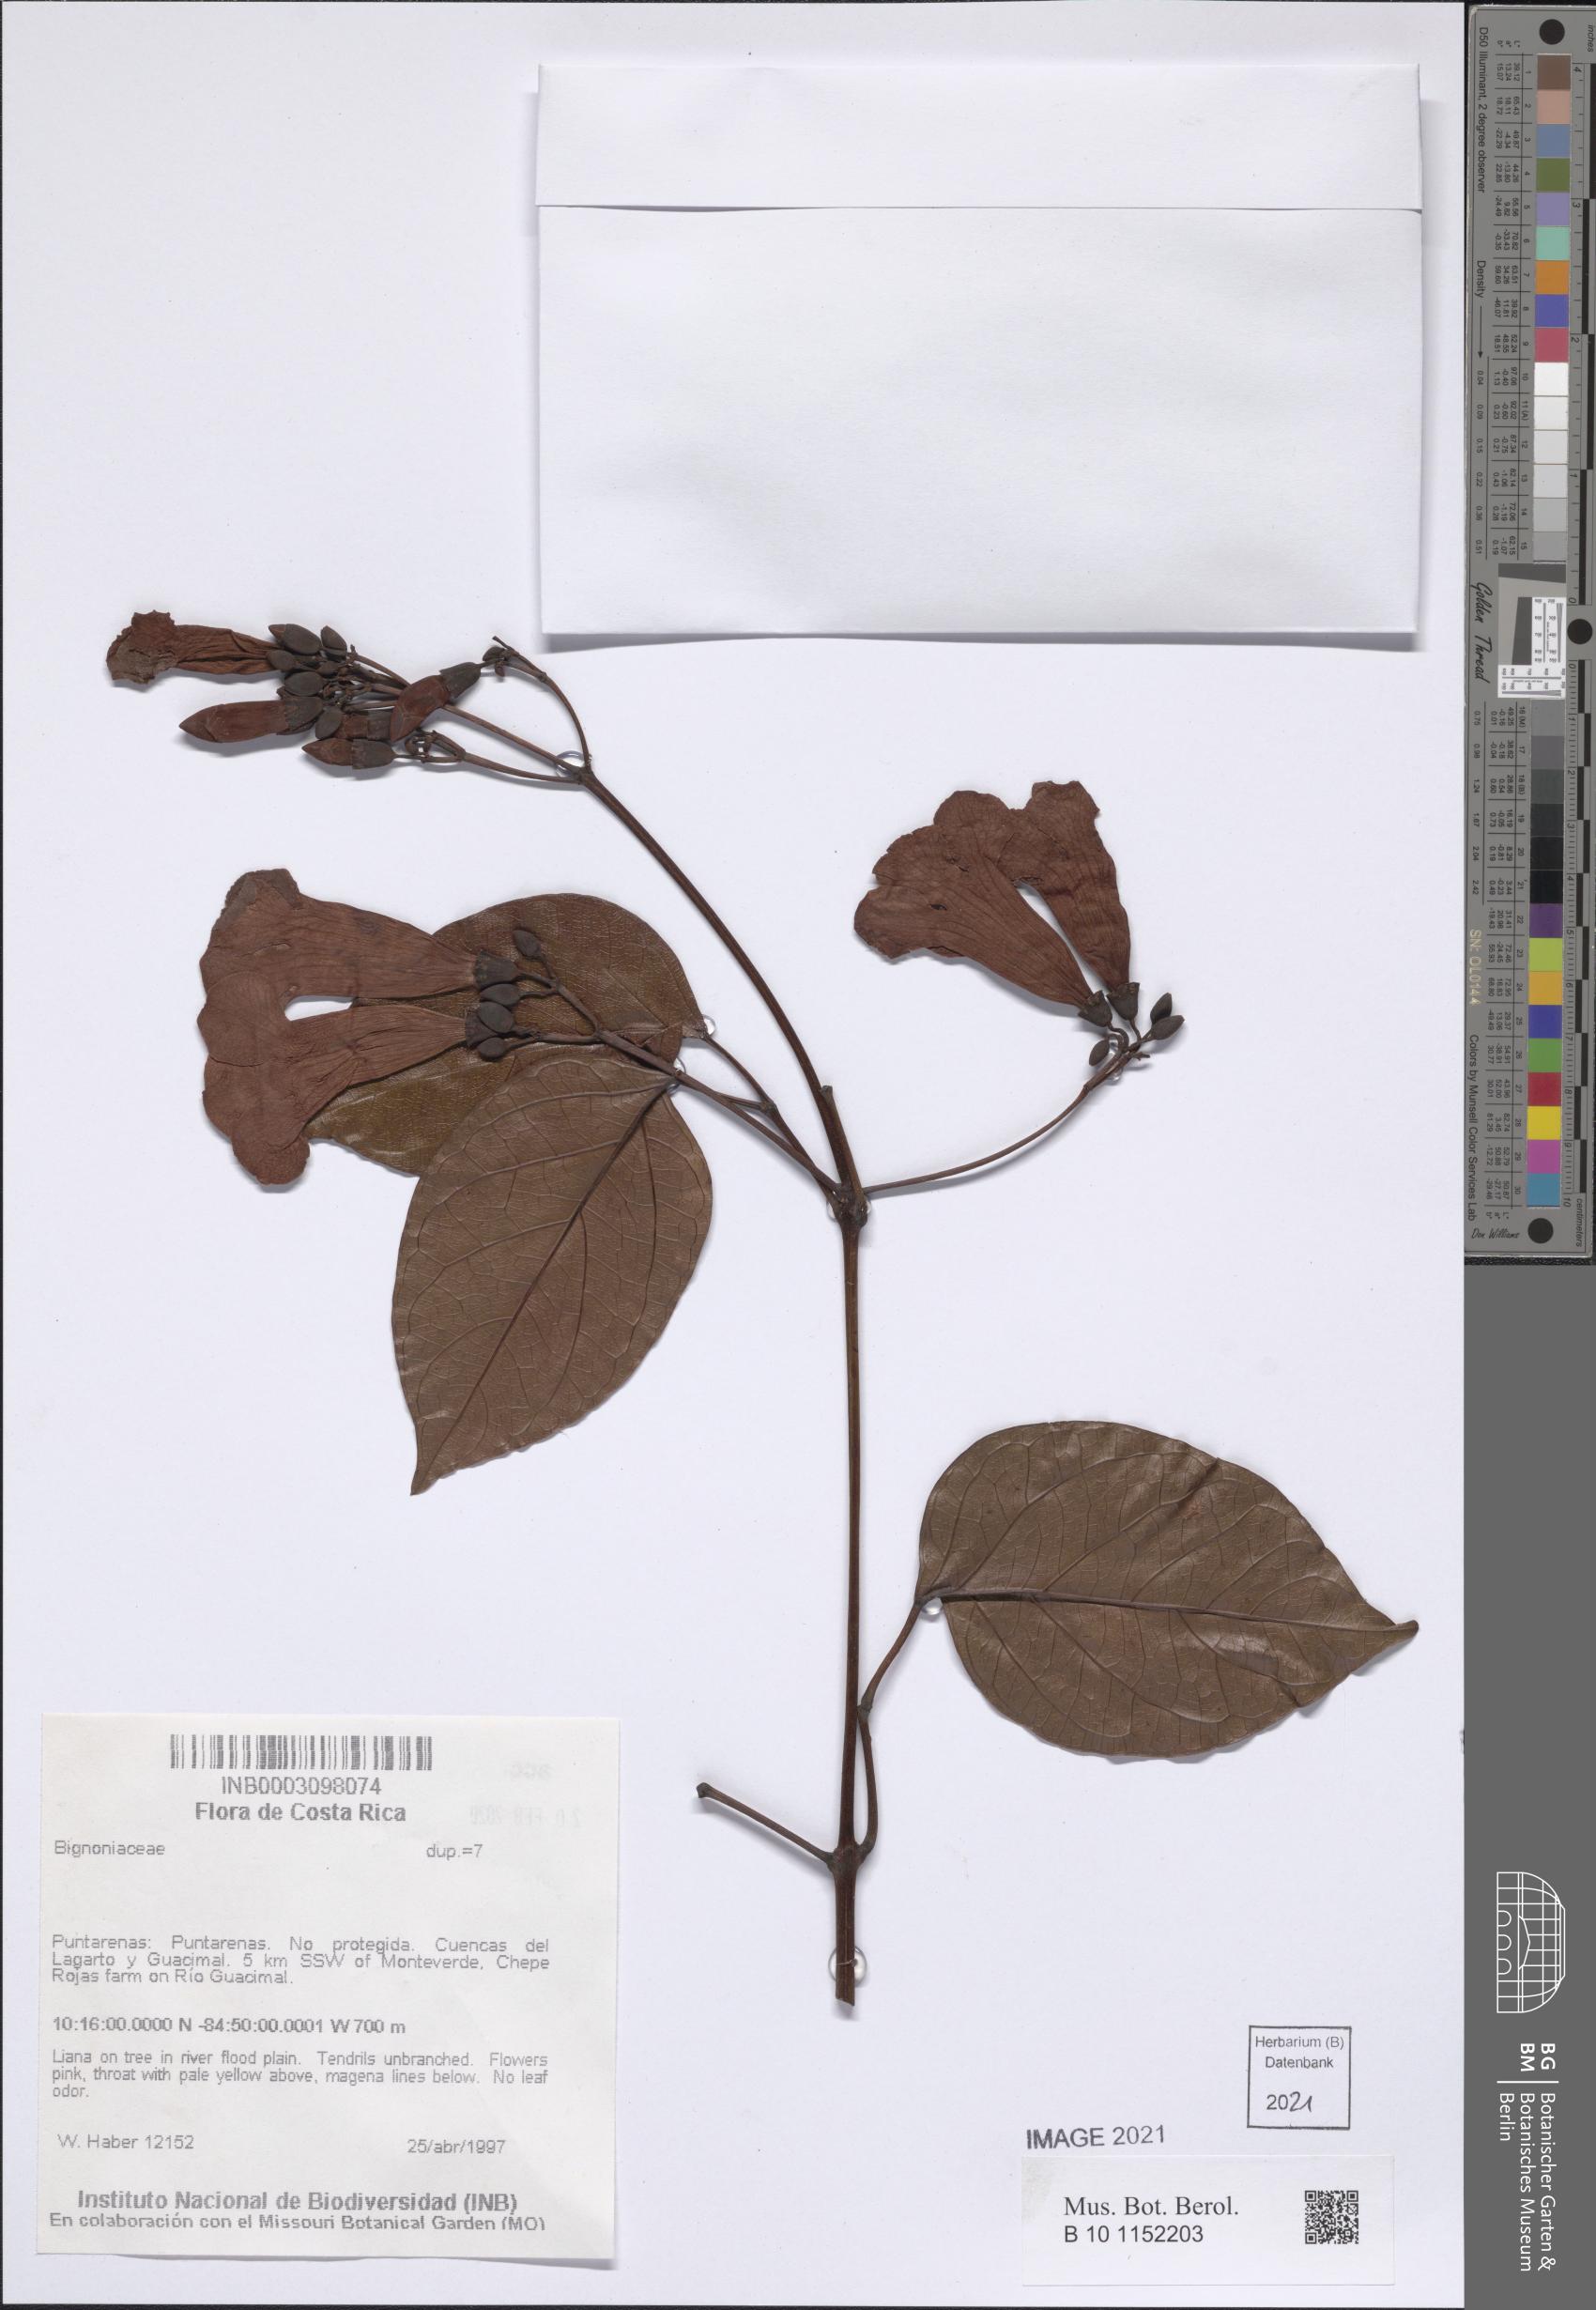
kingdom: Plantae
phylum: Tracheophyta
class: Magnoliopsida
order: Lamiales
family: Bignoniaceae
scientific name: Bignoniaceae
